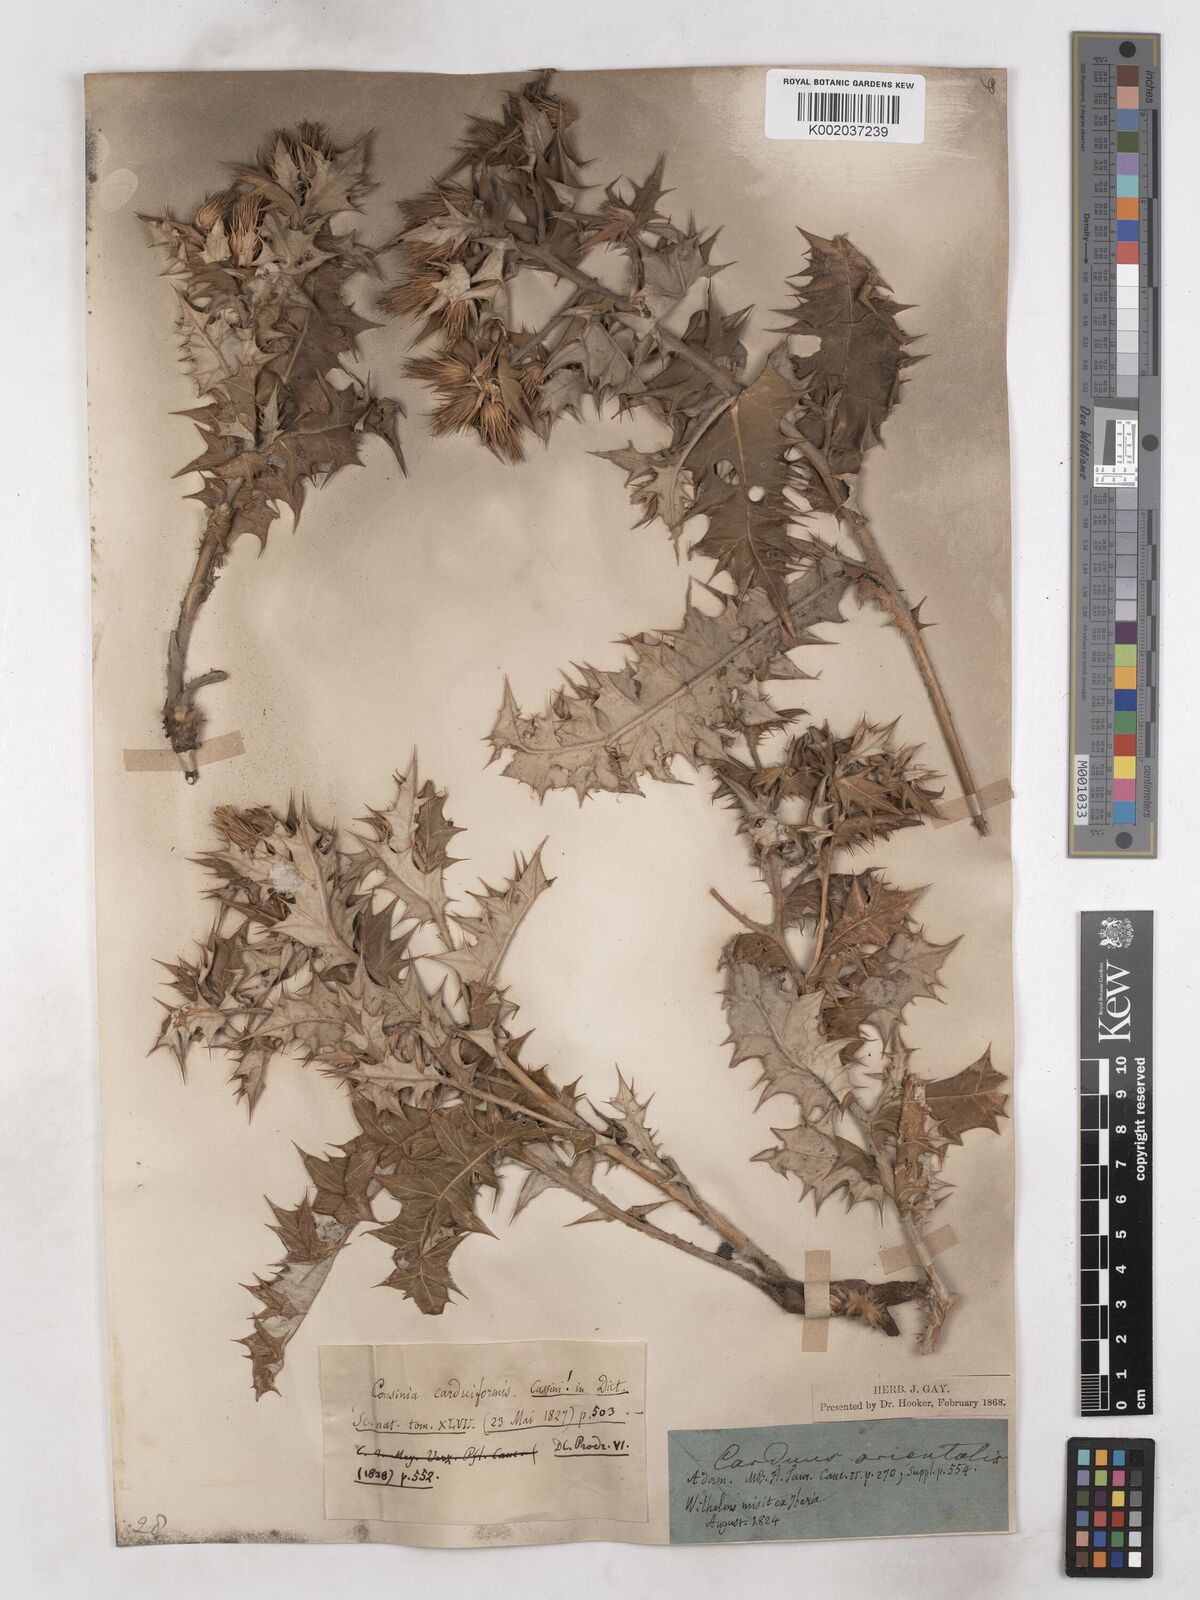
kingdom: Plantae
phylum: Tracheophyta
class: Magnoliopsida
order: Asterales
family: Asteraceae
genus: Cousinia
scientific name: Cousinia
